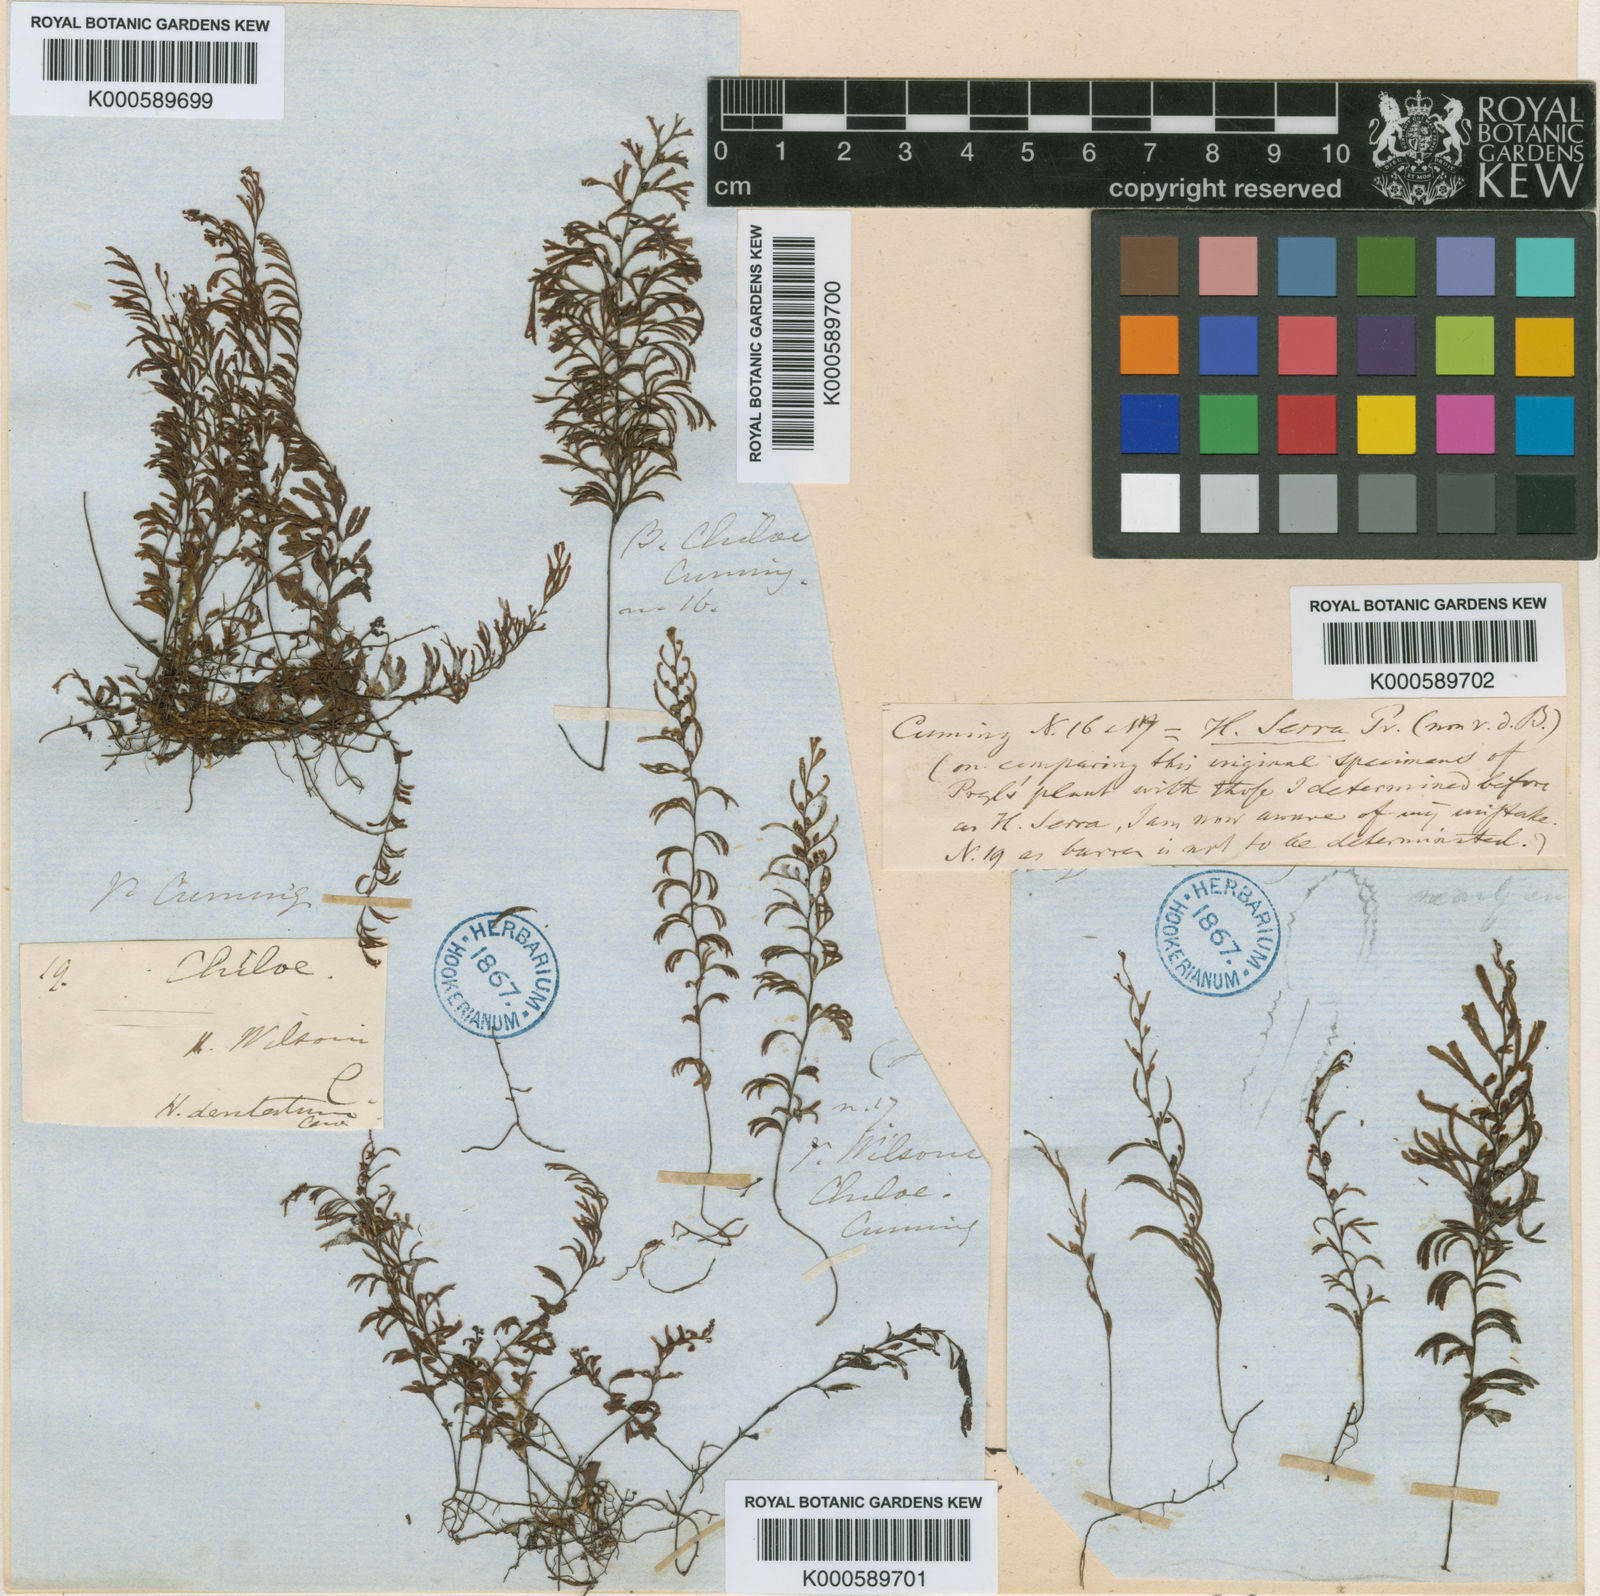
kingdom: Plantae
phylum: Tracheophyta
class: Polypodiopsida
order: Hymenophyllales
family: Hymenophyllaceae
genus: Hymenophyllum
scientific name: Hymenophyllum secundum
